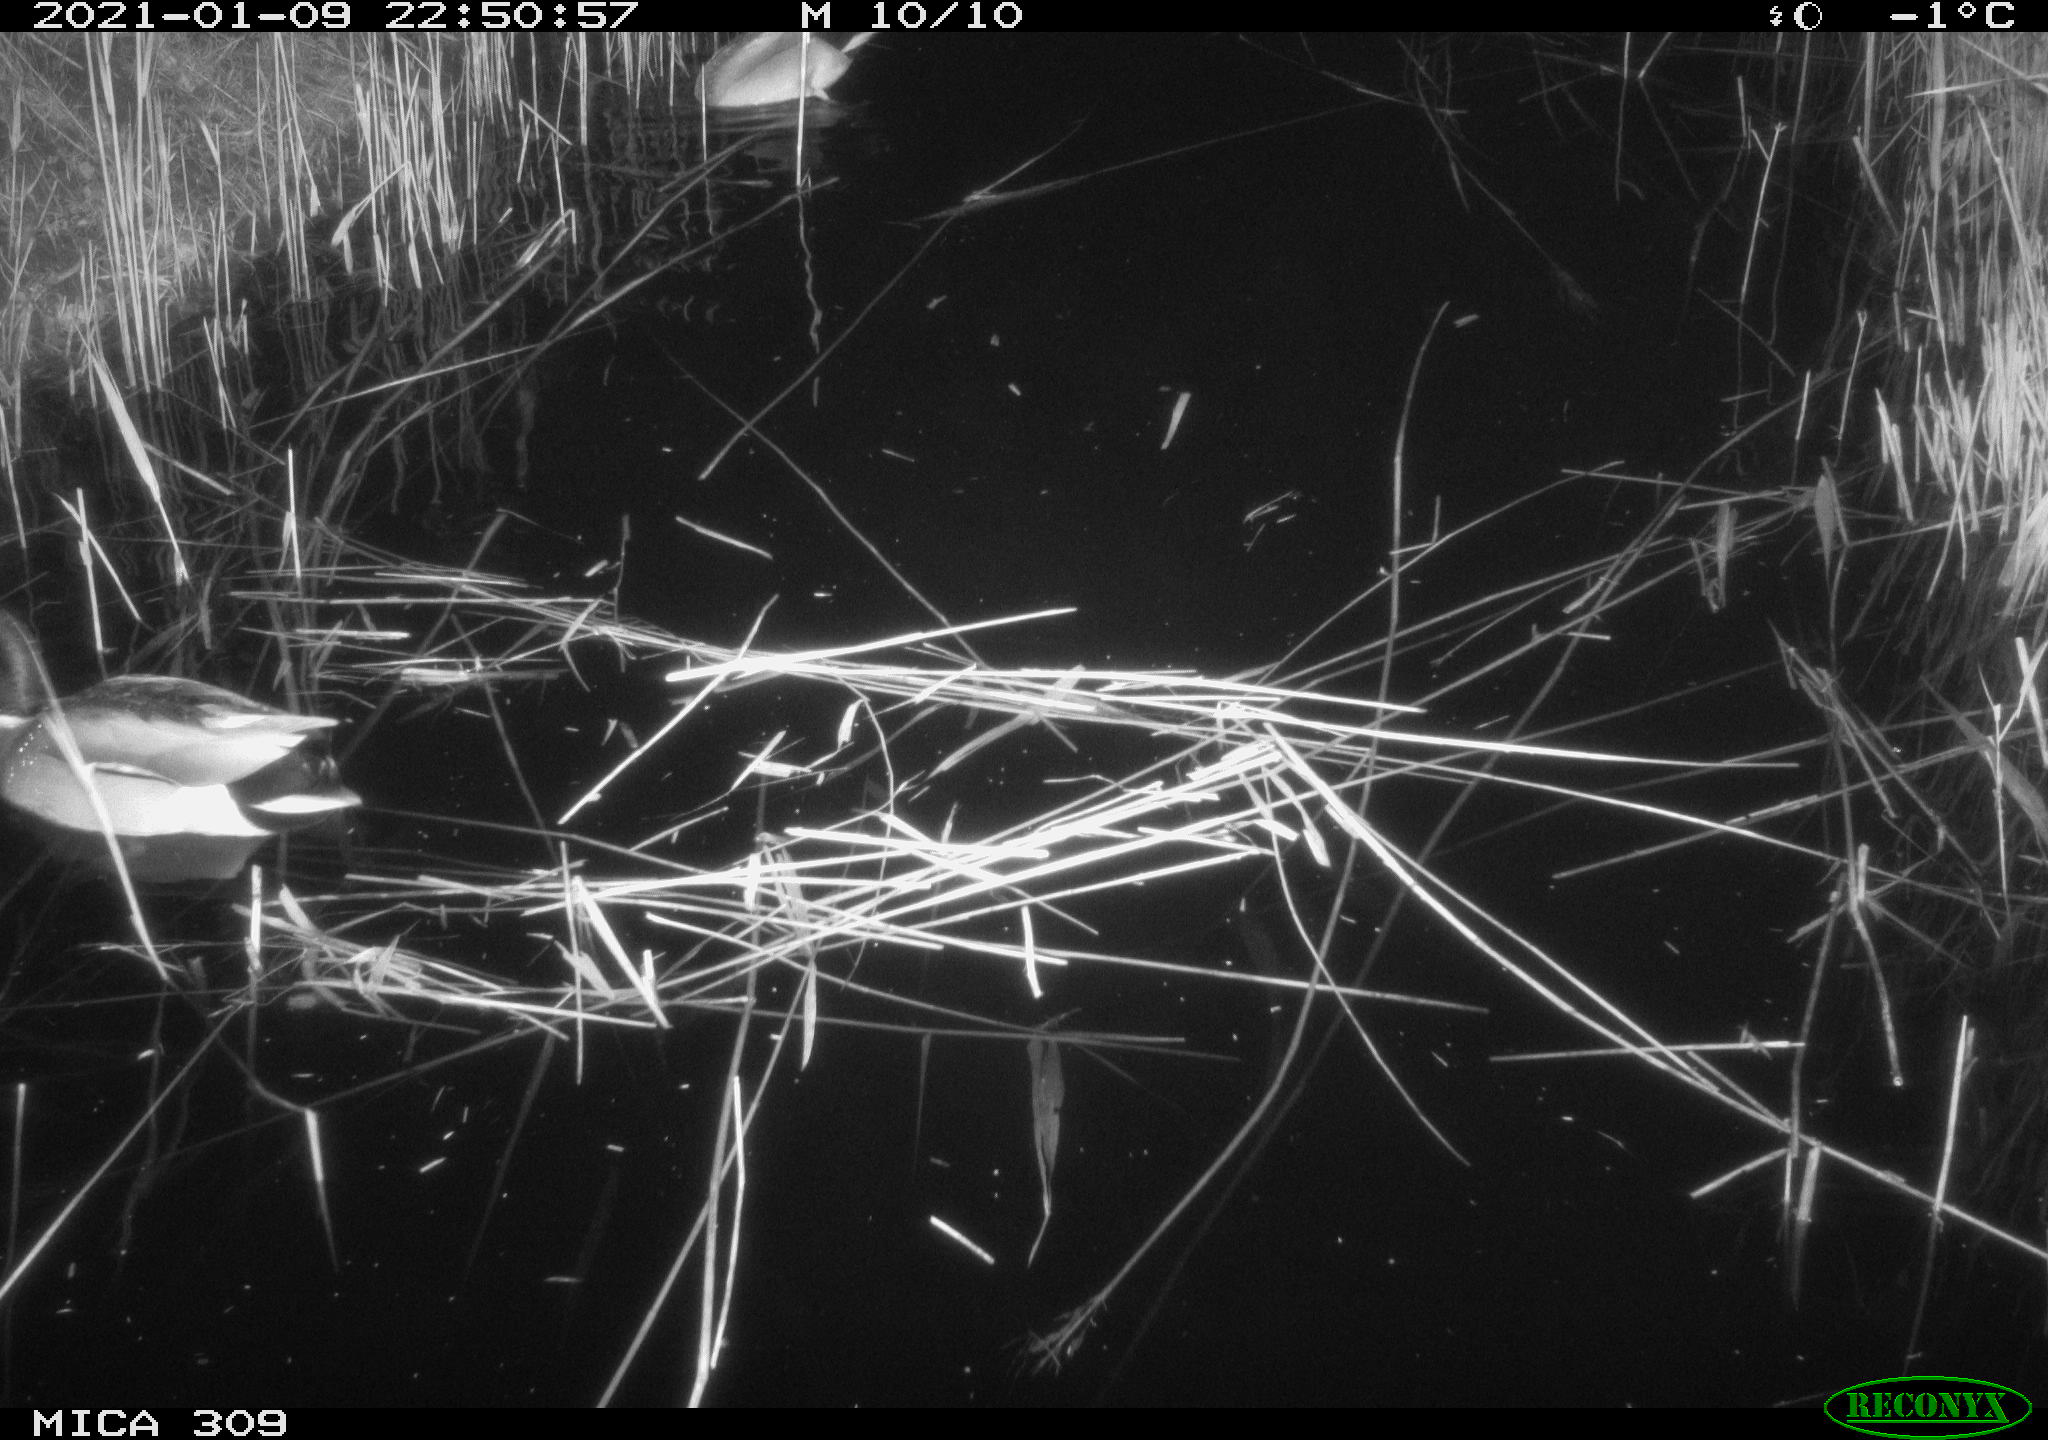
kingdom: Animalia
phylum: Chordata
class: Aves
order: Anseriformes
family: Anatidae
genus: Anas
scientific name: Anas platyrhynchos
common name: Mallard
